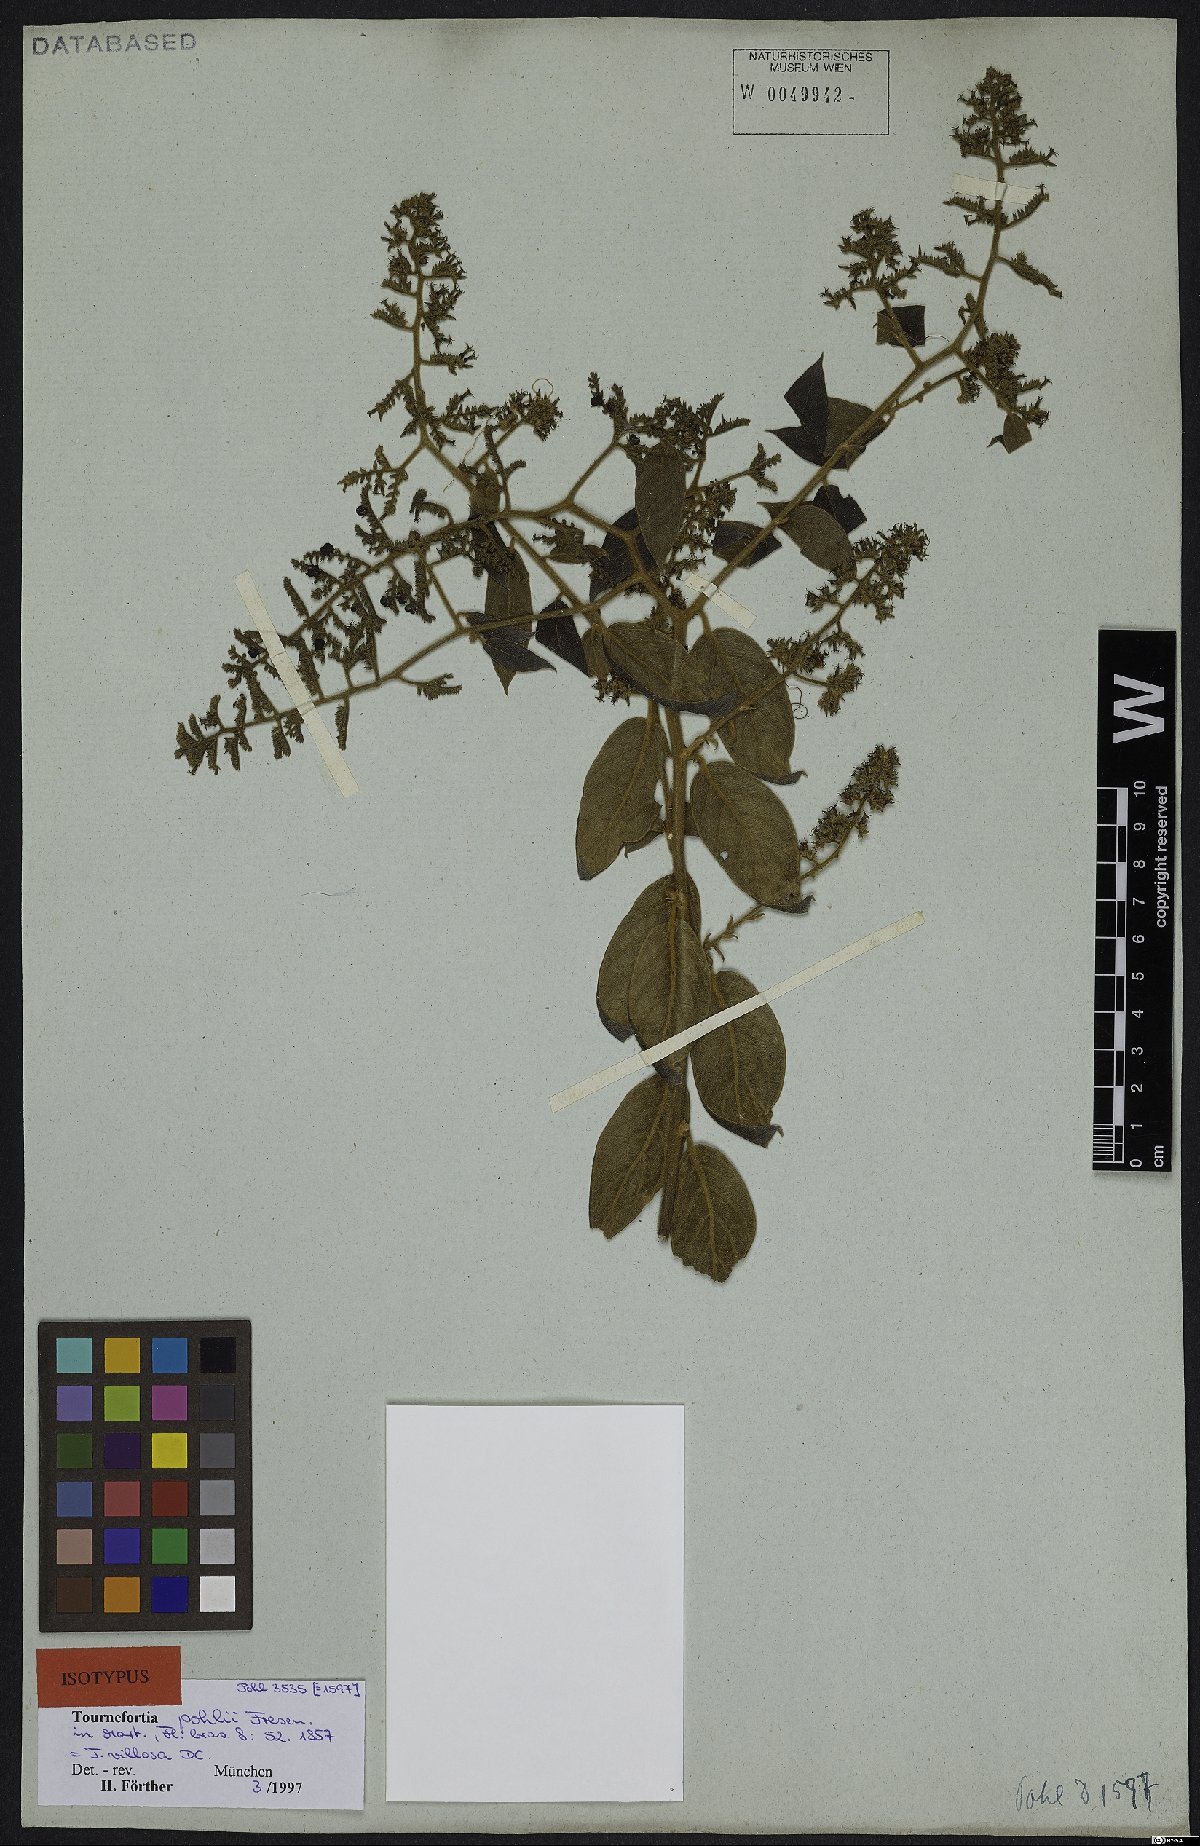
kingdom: Plantae
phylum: Tracheophyta
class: Magnoliopsida
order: Boraginales
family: Heliotropiaceae
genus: Tournefortia
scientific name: Tournefortia villosa
